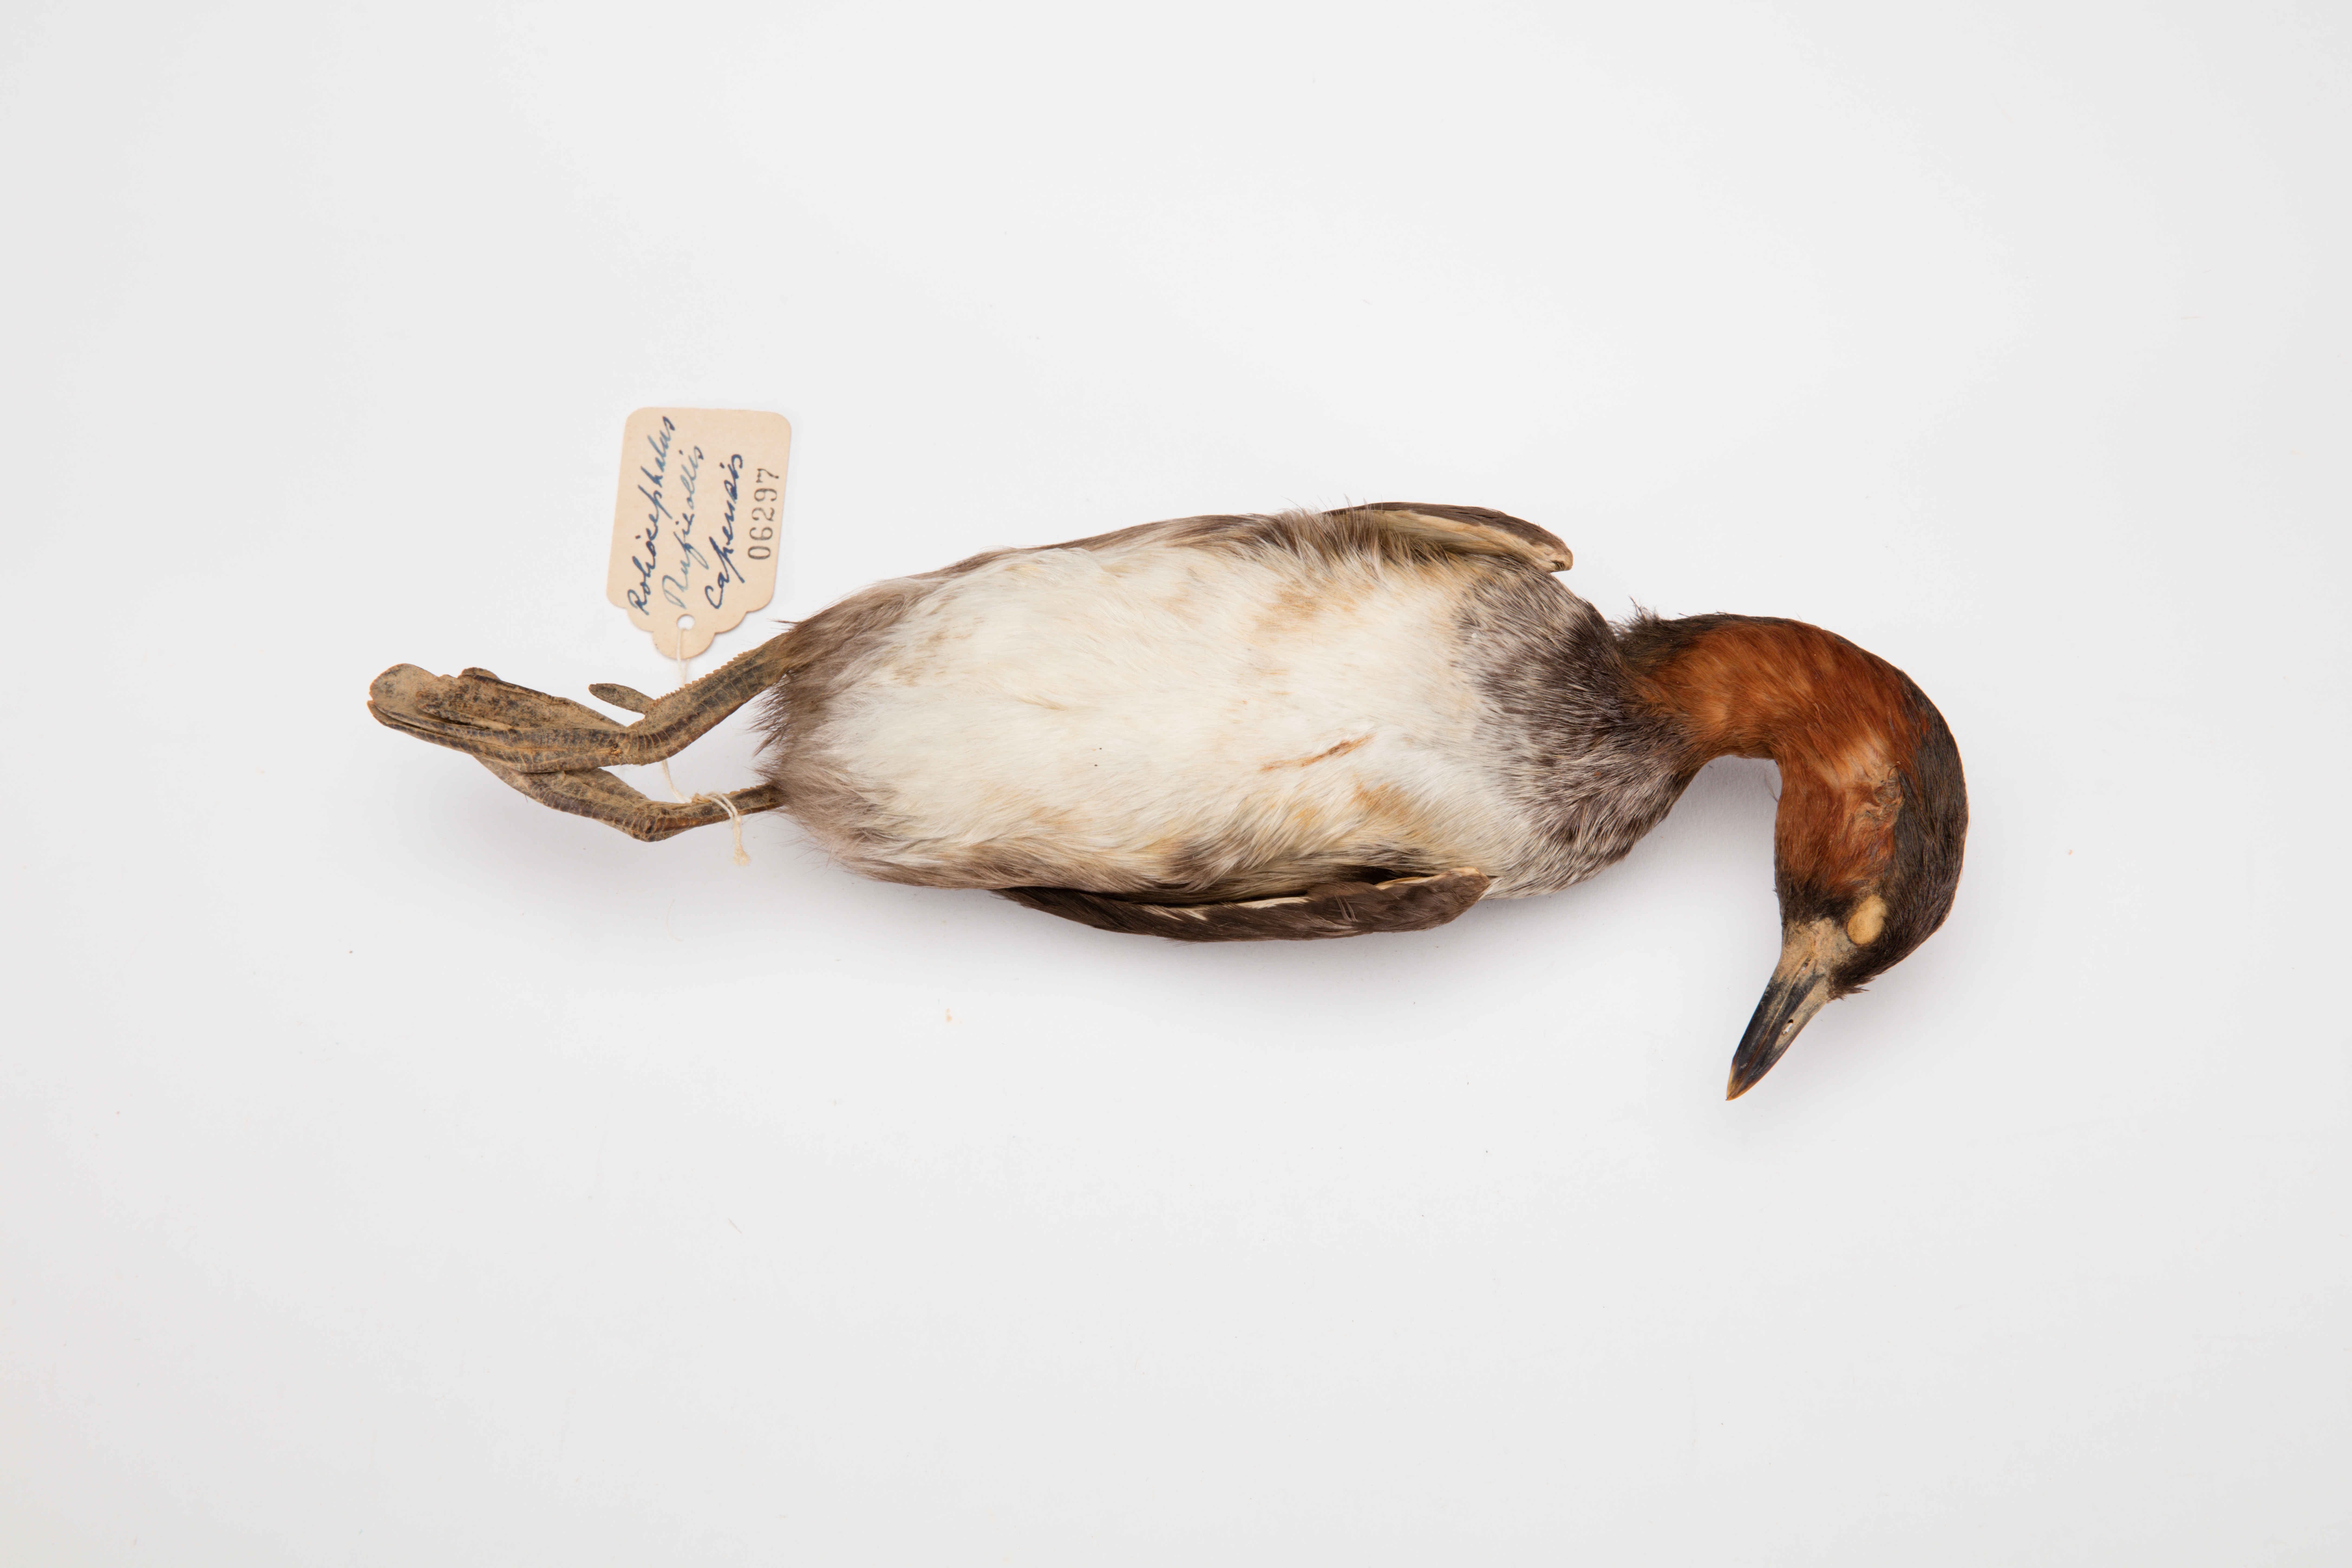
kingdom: Animalia
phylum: Chordata
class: Aves
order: Podicipediformes
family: Podicipedidae
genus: Tachybaptus
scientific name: Tachybaptus ruficollis
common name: Little grebe
